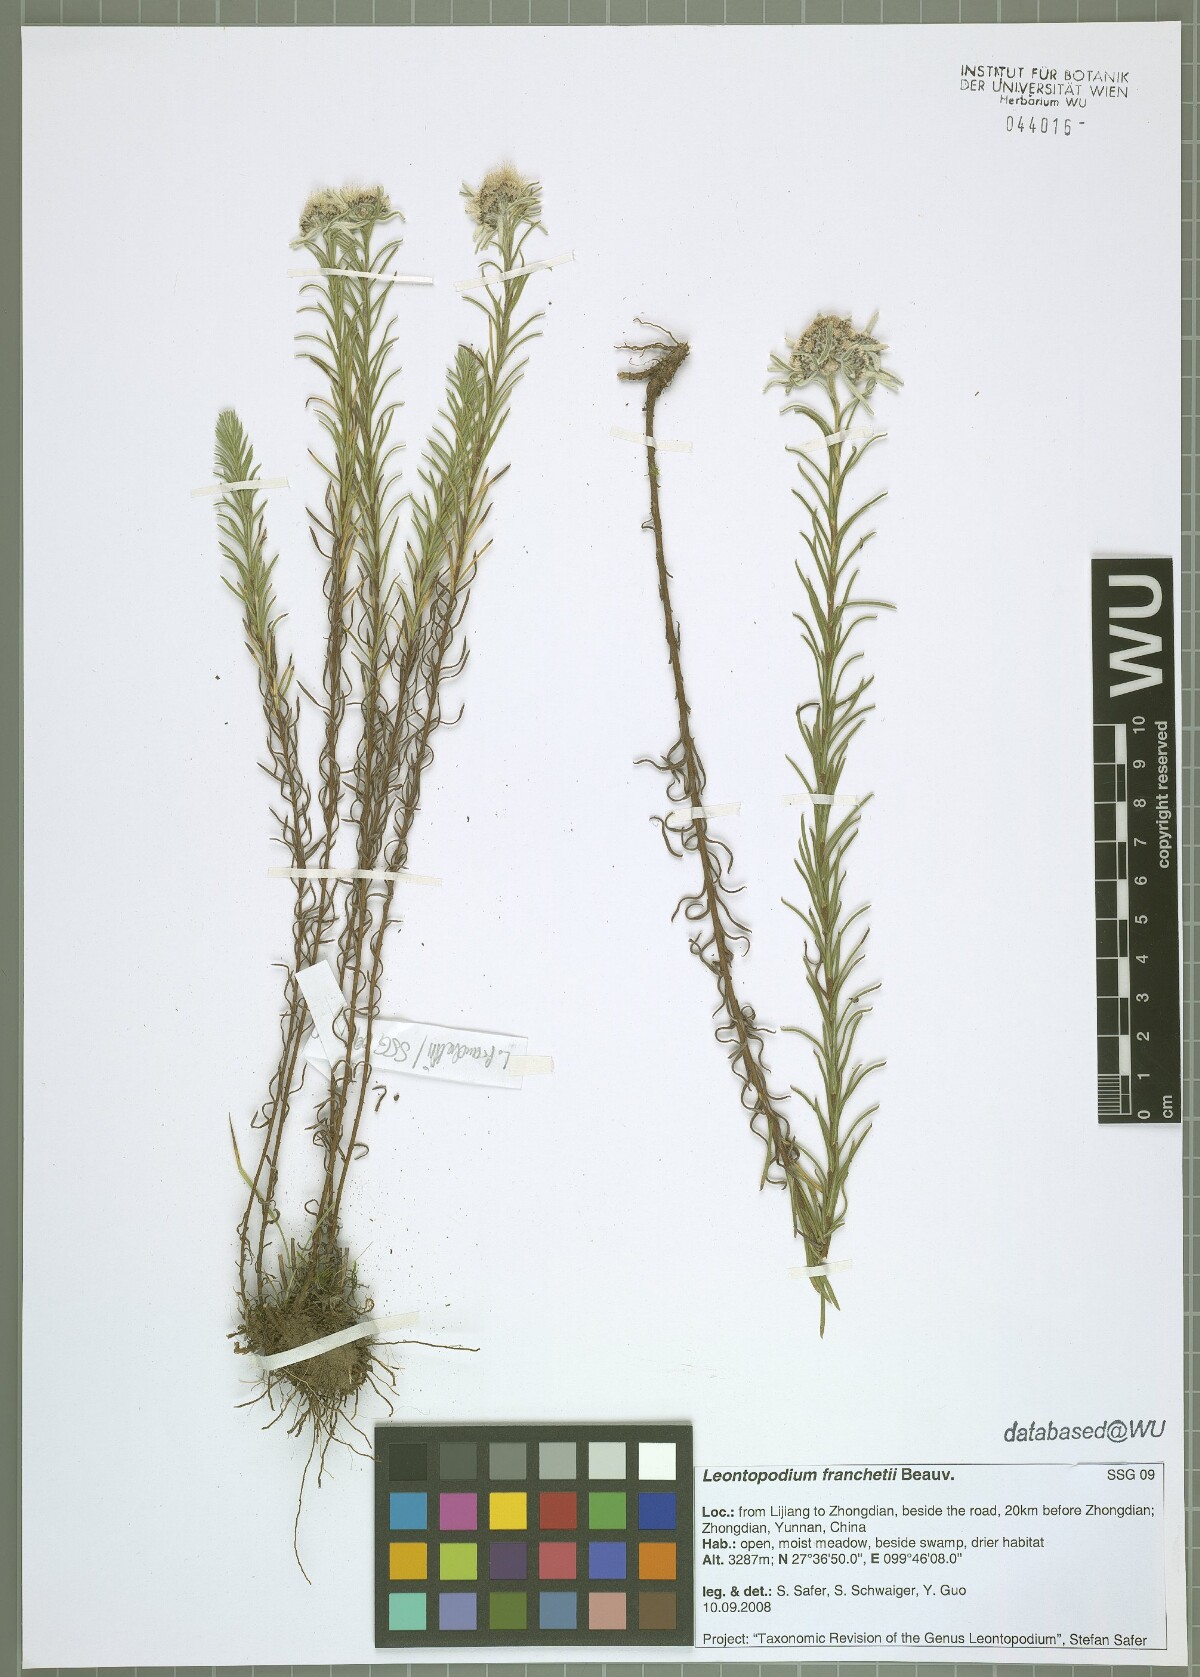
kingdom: Plantae
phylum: Tracheophyta
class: Magnoliopsida
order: Asterales
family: Asteraceae
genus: Leontopodium
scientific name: Leontopodium franchetii
